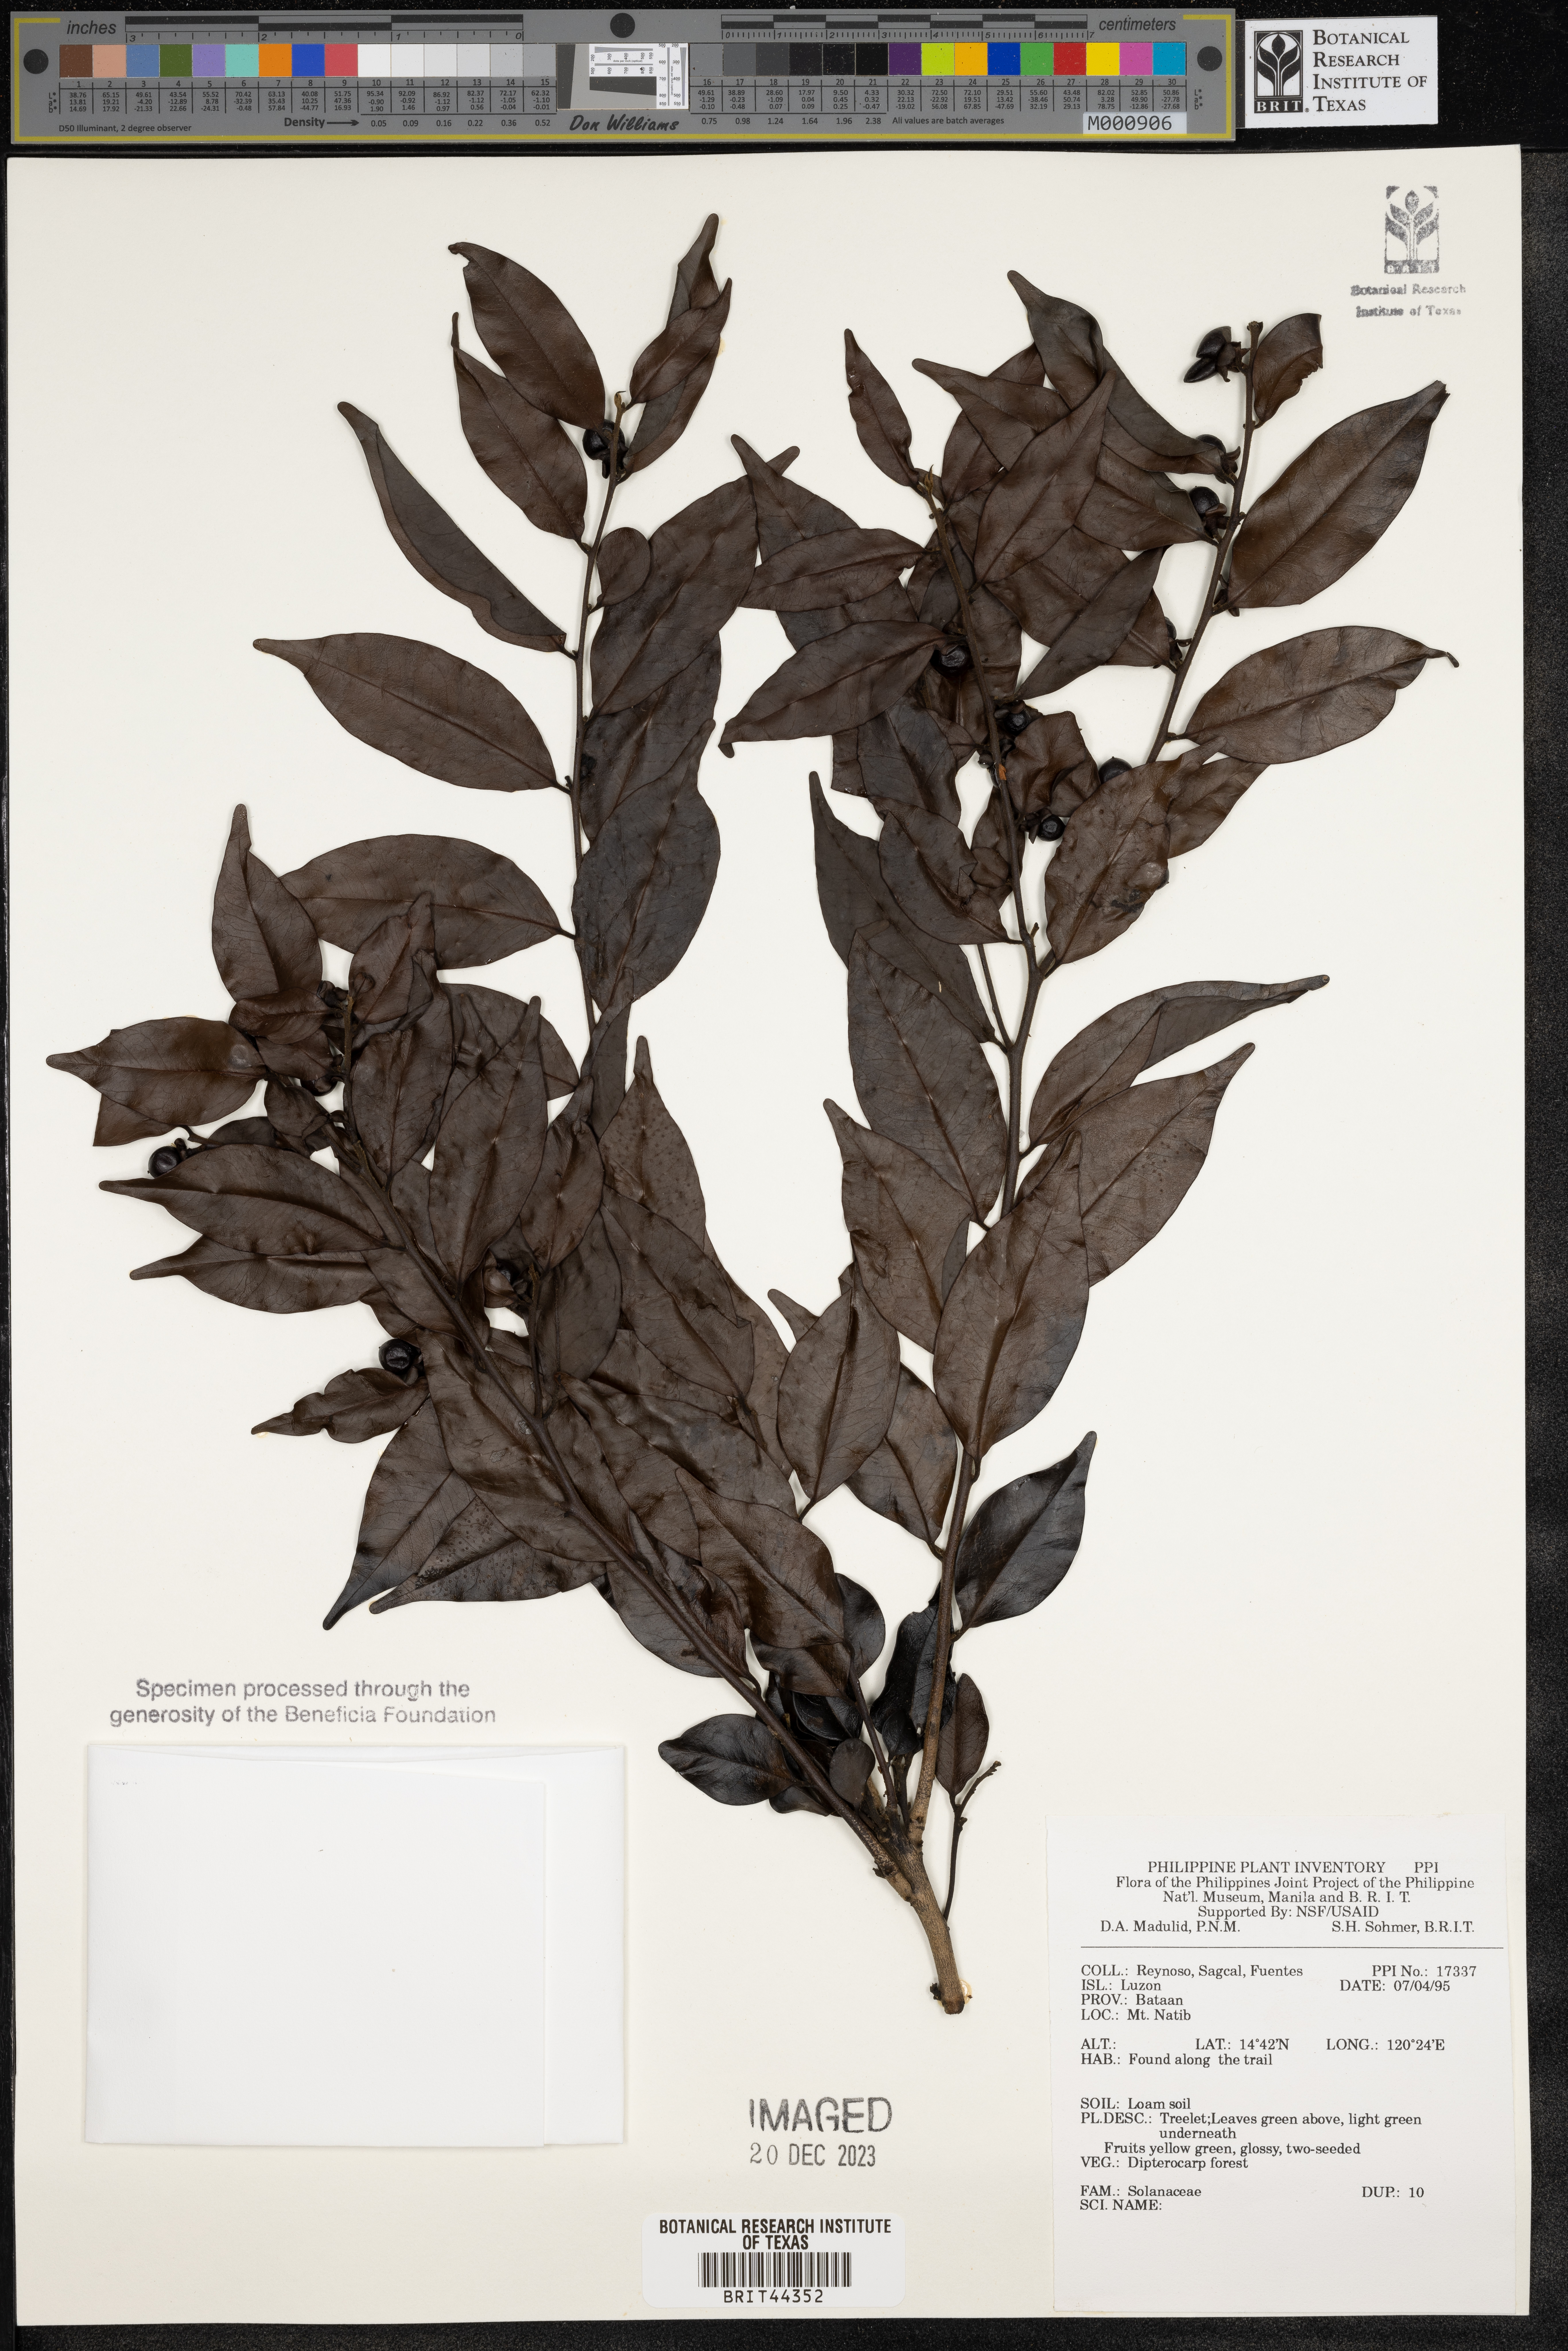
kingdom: Plantae
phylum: Tracheophyta
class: Magnoliopsida
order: Solanales
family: Solanaceae
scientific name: Solanaceae
